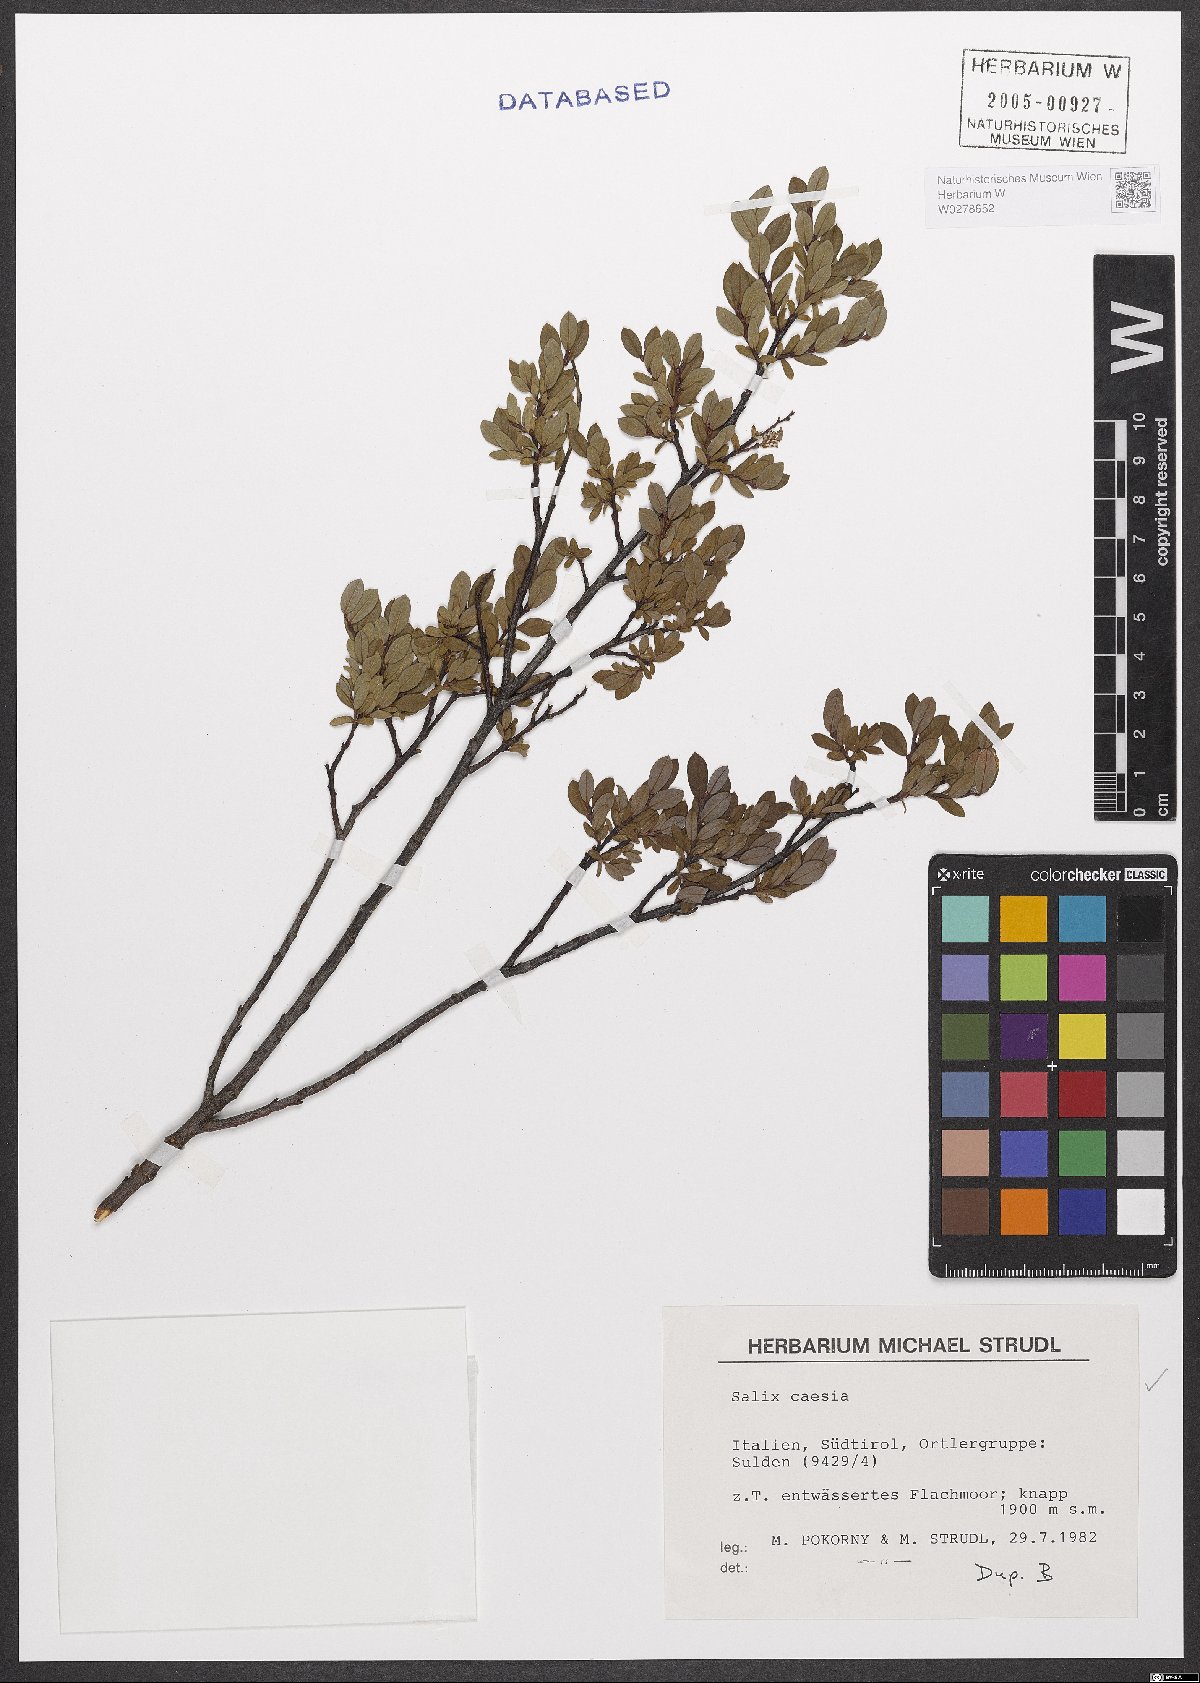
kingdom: Plantae
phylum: Tracheophyta
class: Magnoliopsida
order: Malpighiales
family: Salicaceae
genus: Salix
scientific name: Salix caesia
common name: Blue willow
